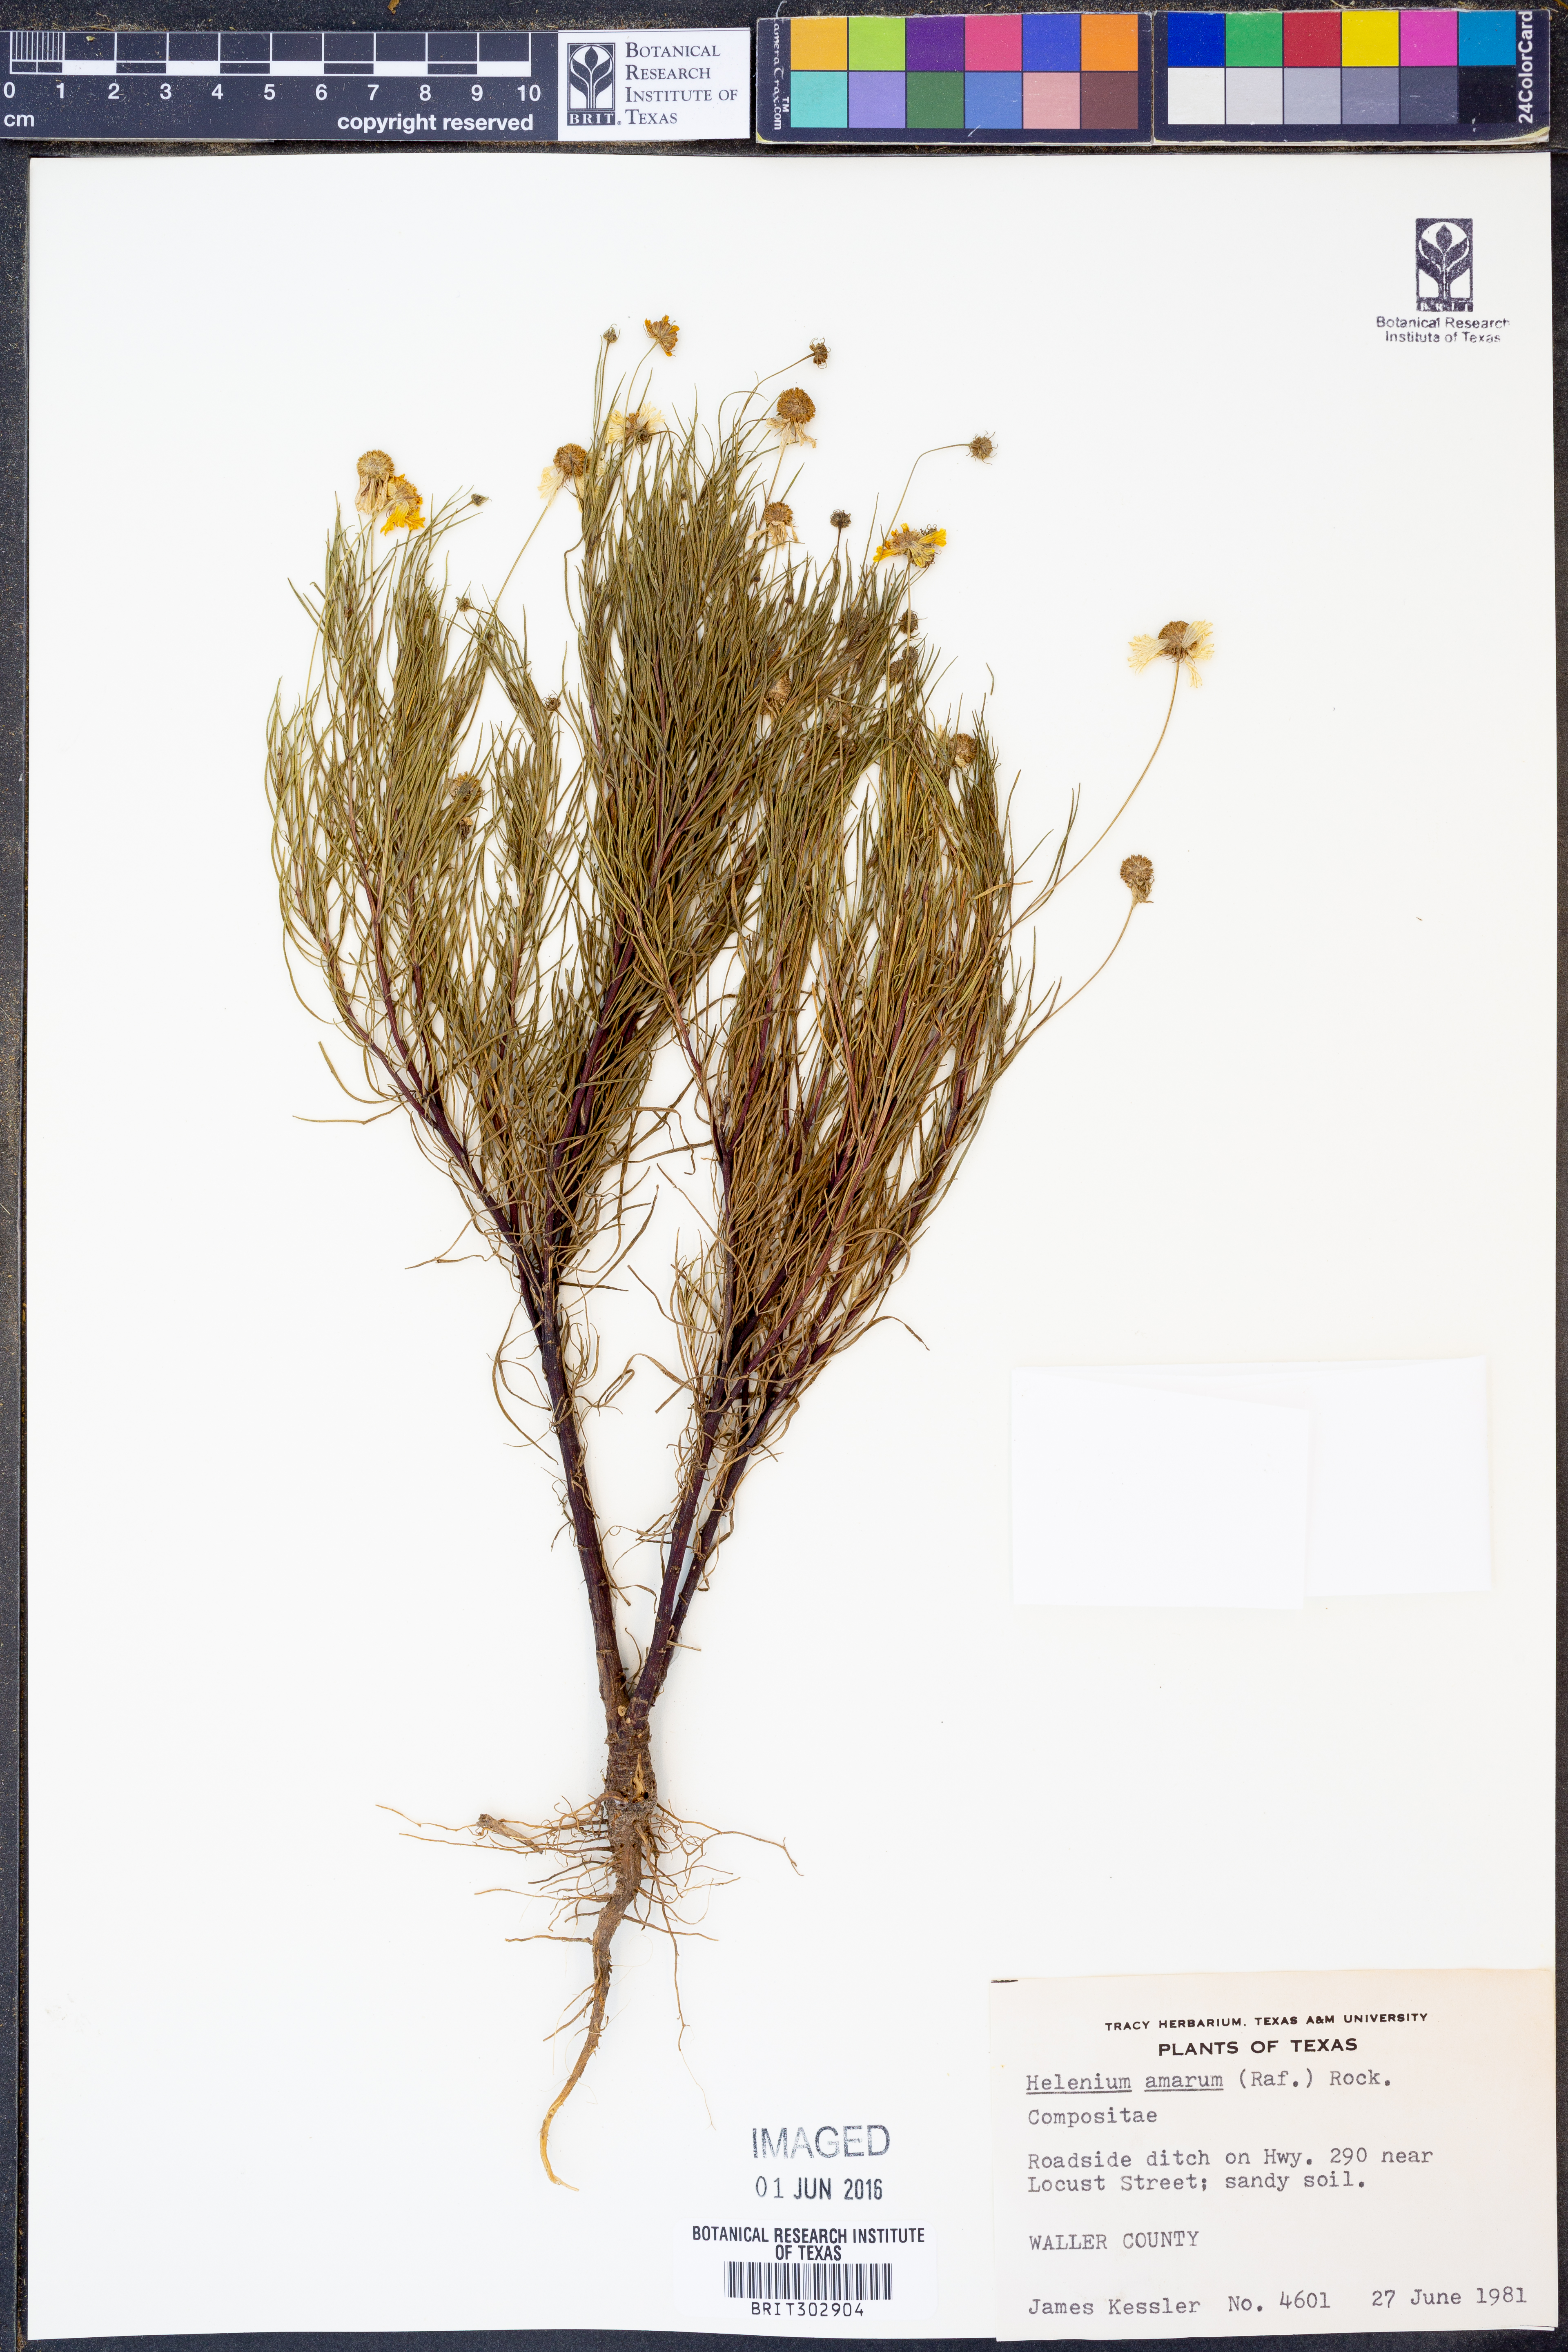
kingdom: Plantae
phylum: Tracheophyta
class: Magnoliopsida
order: Asterales
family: Asteraceae
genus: Helenium
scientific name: Helenium amarum
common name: Bitter sneezeweed
